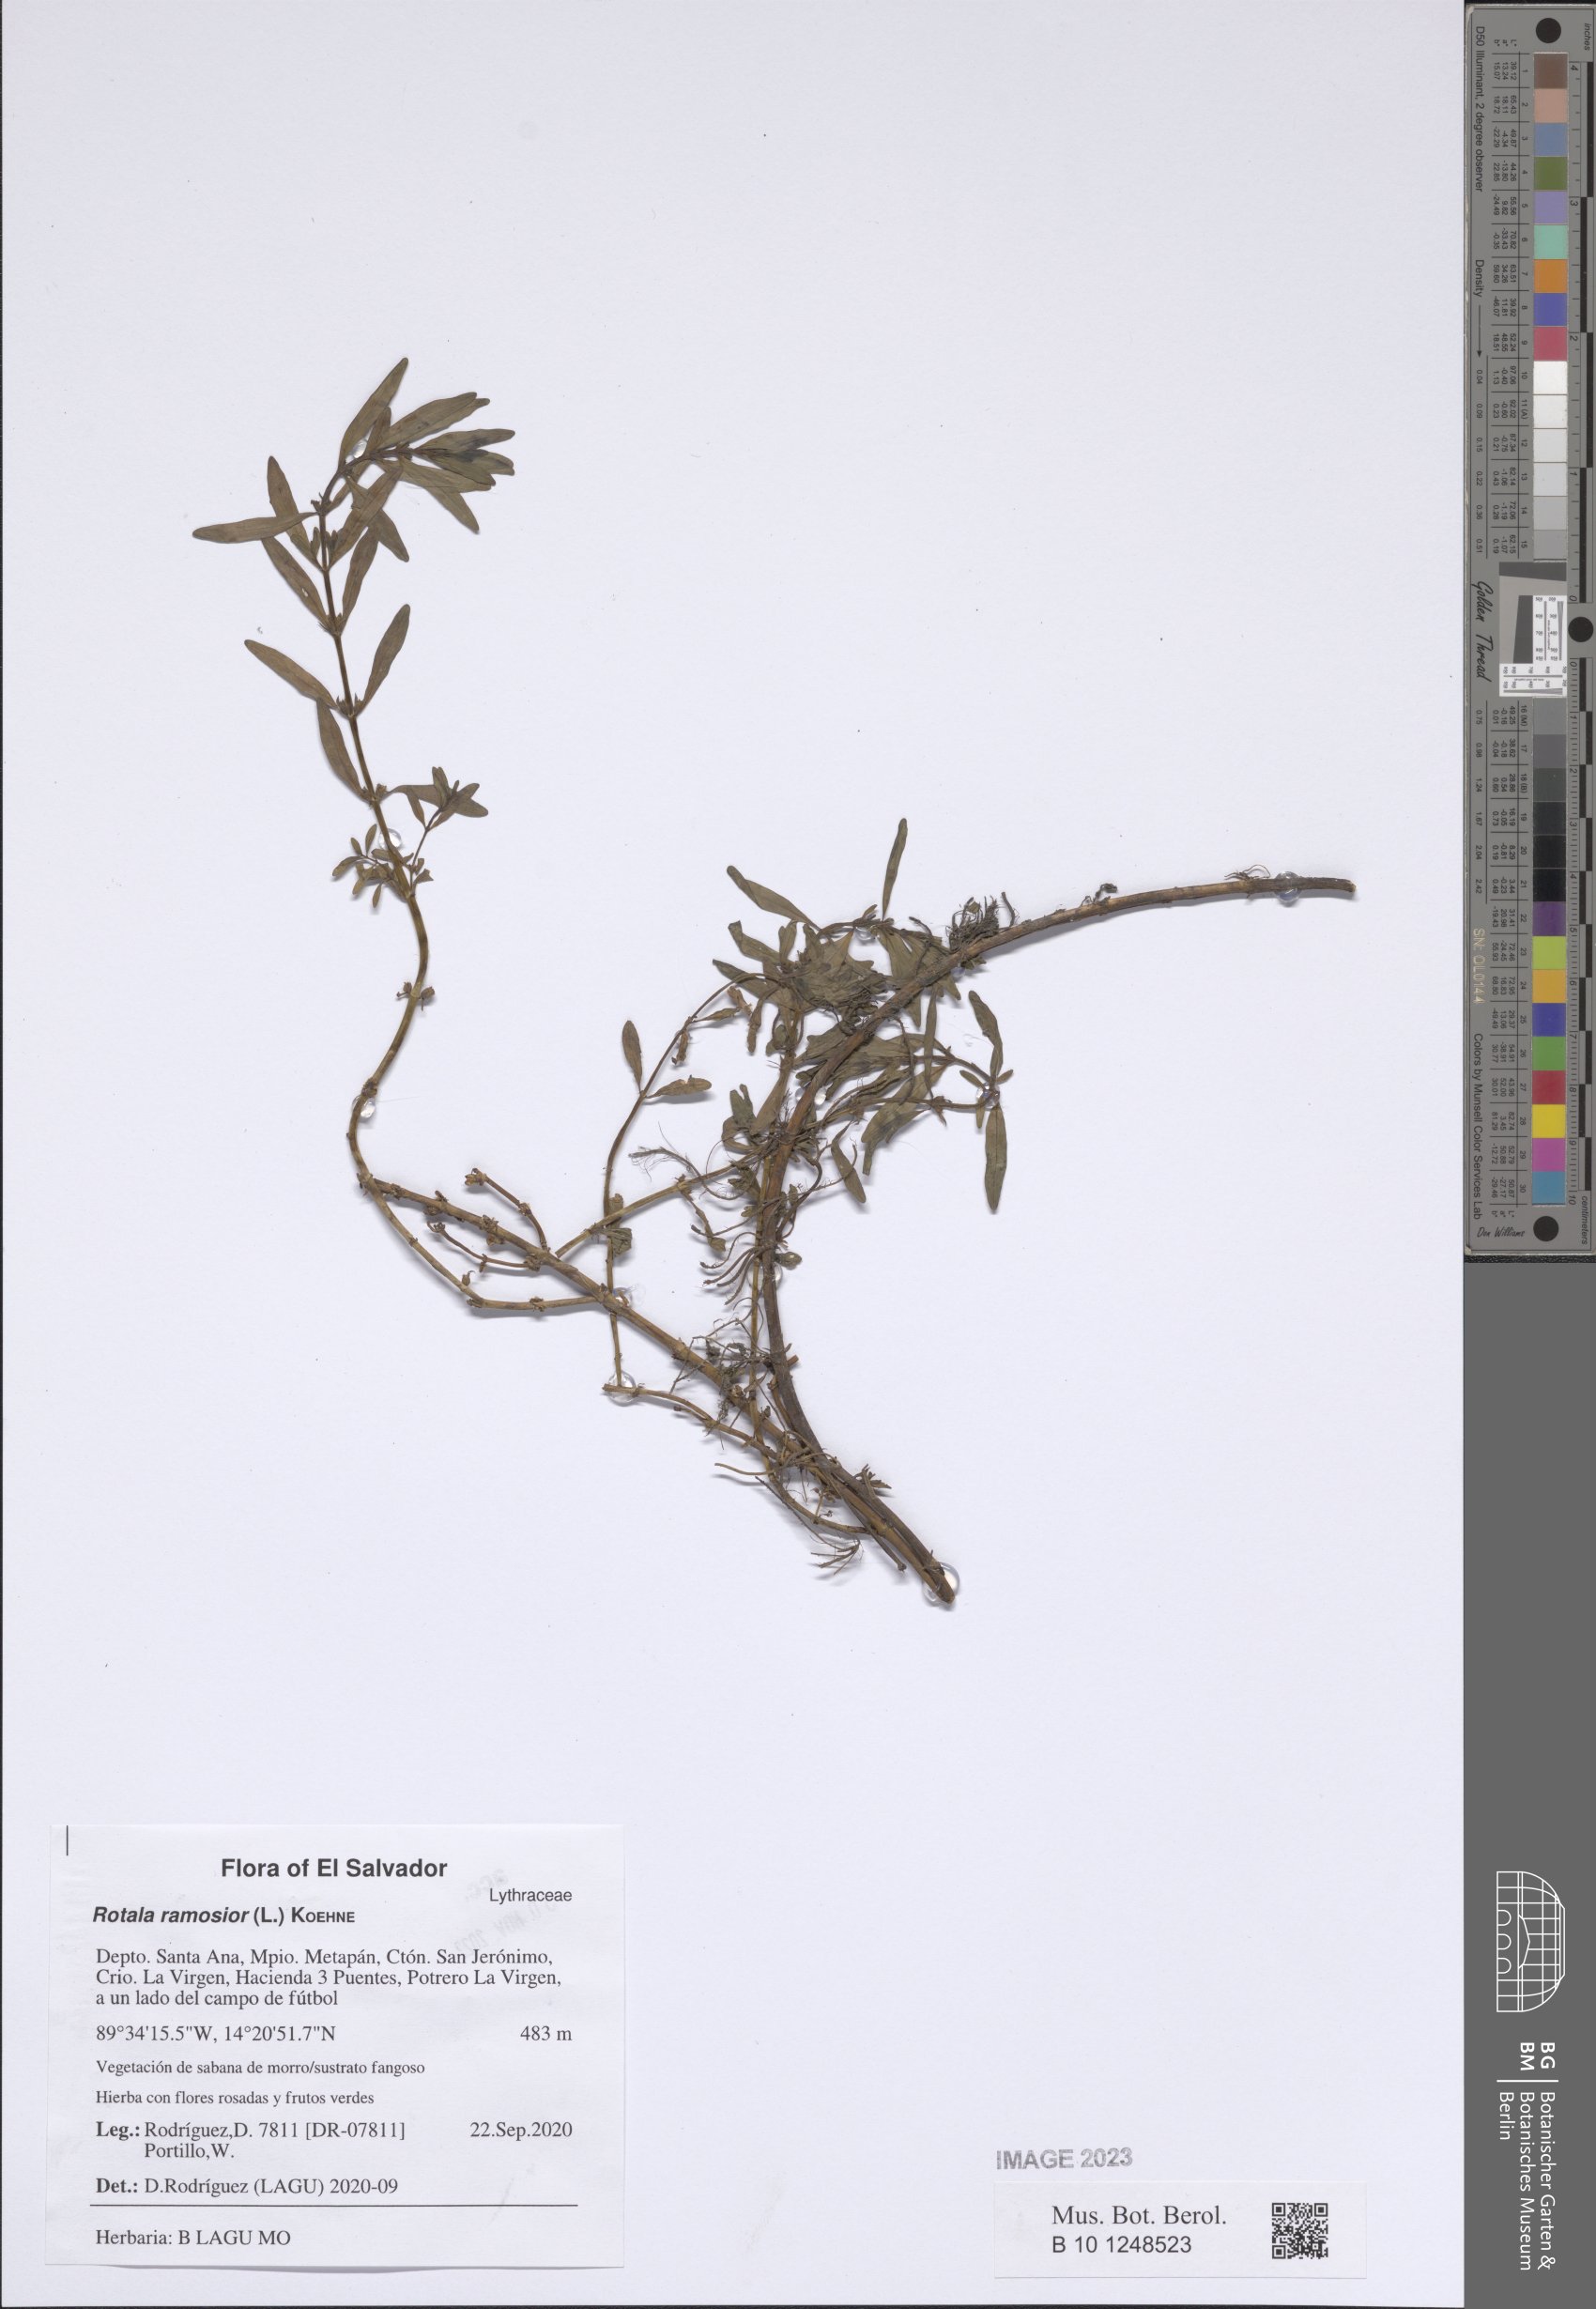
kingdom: Plantae
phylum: Tracheophyta
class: Magnoliopsida
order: Myrtales
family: Lythraceae
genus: Rotala
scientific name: Rotala ramosior
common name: Lowland rotala
